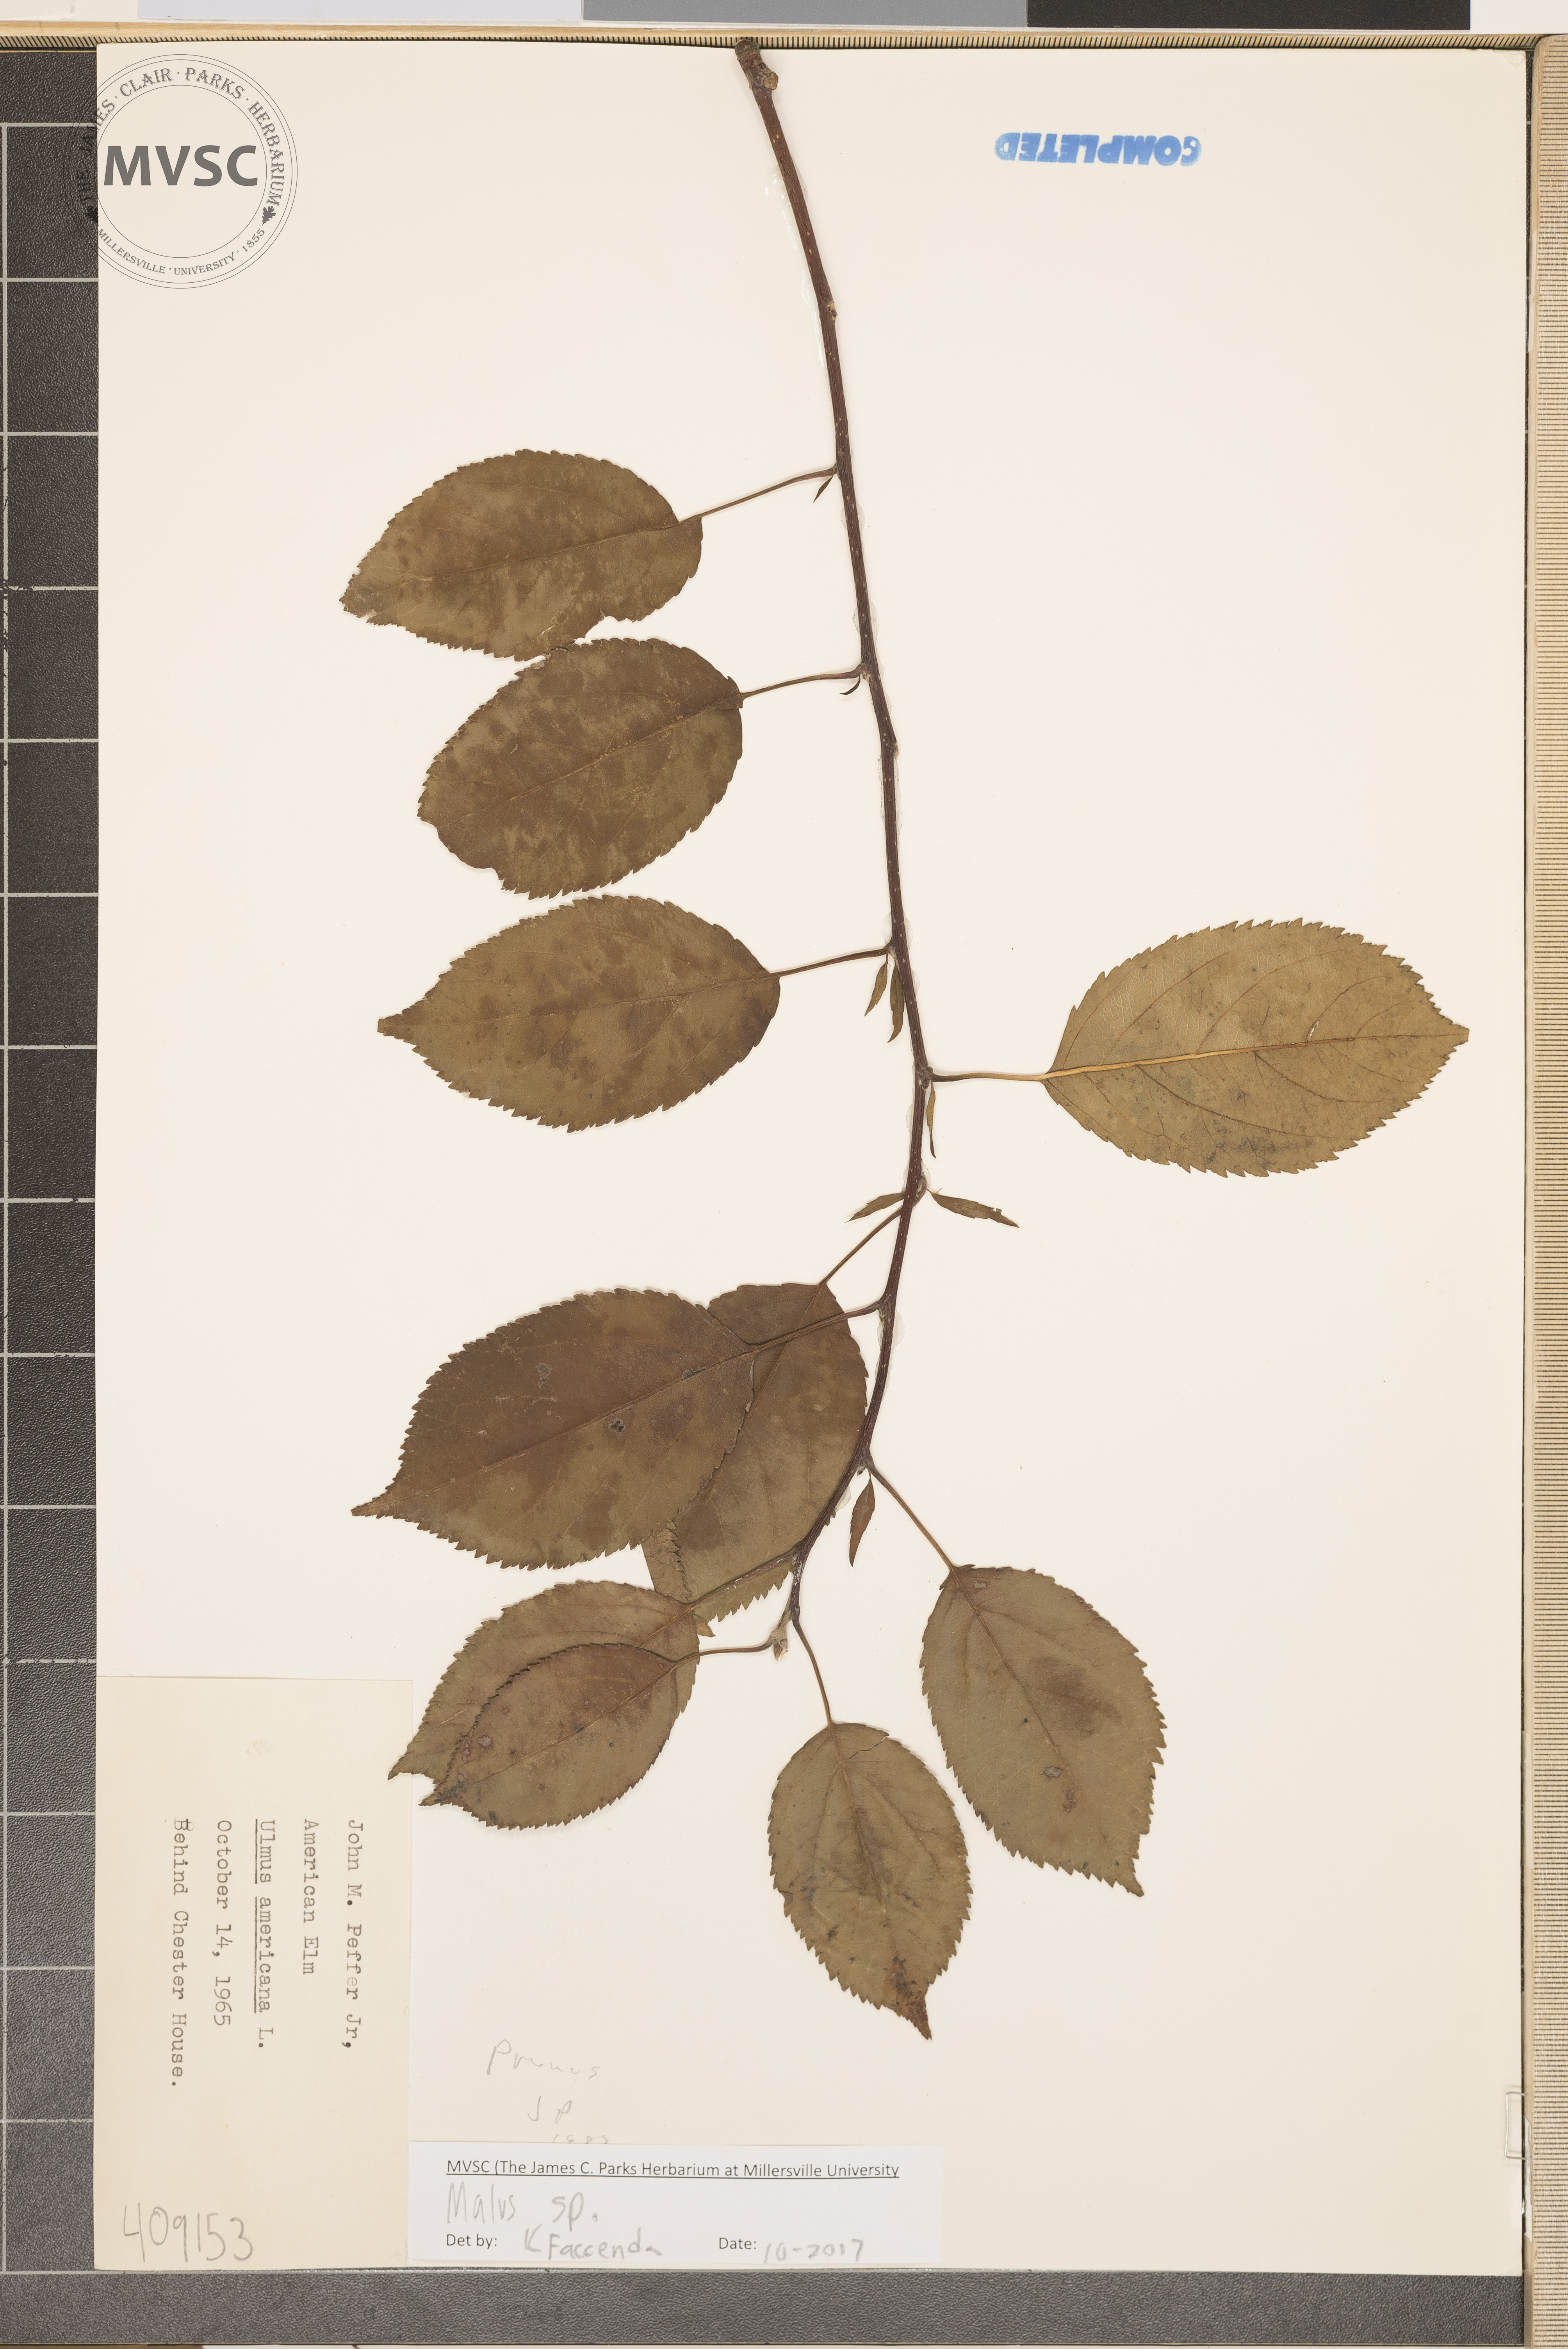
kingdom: Plantae
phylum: Tracheophyta
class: Magnoliopsida
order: Rosales
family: Rosaceae
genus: Malus
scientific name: Malus
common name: Apple
